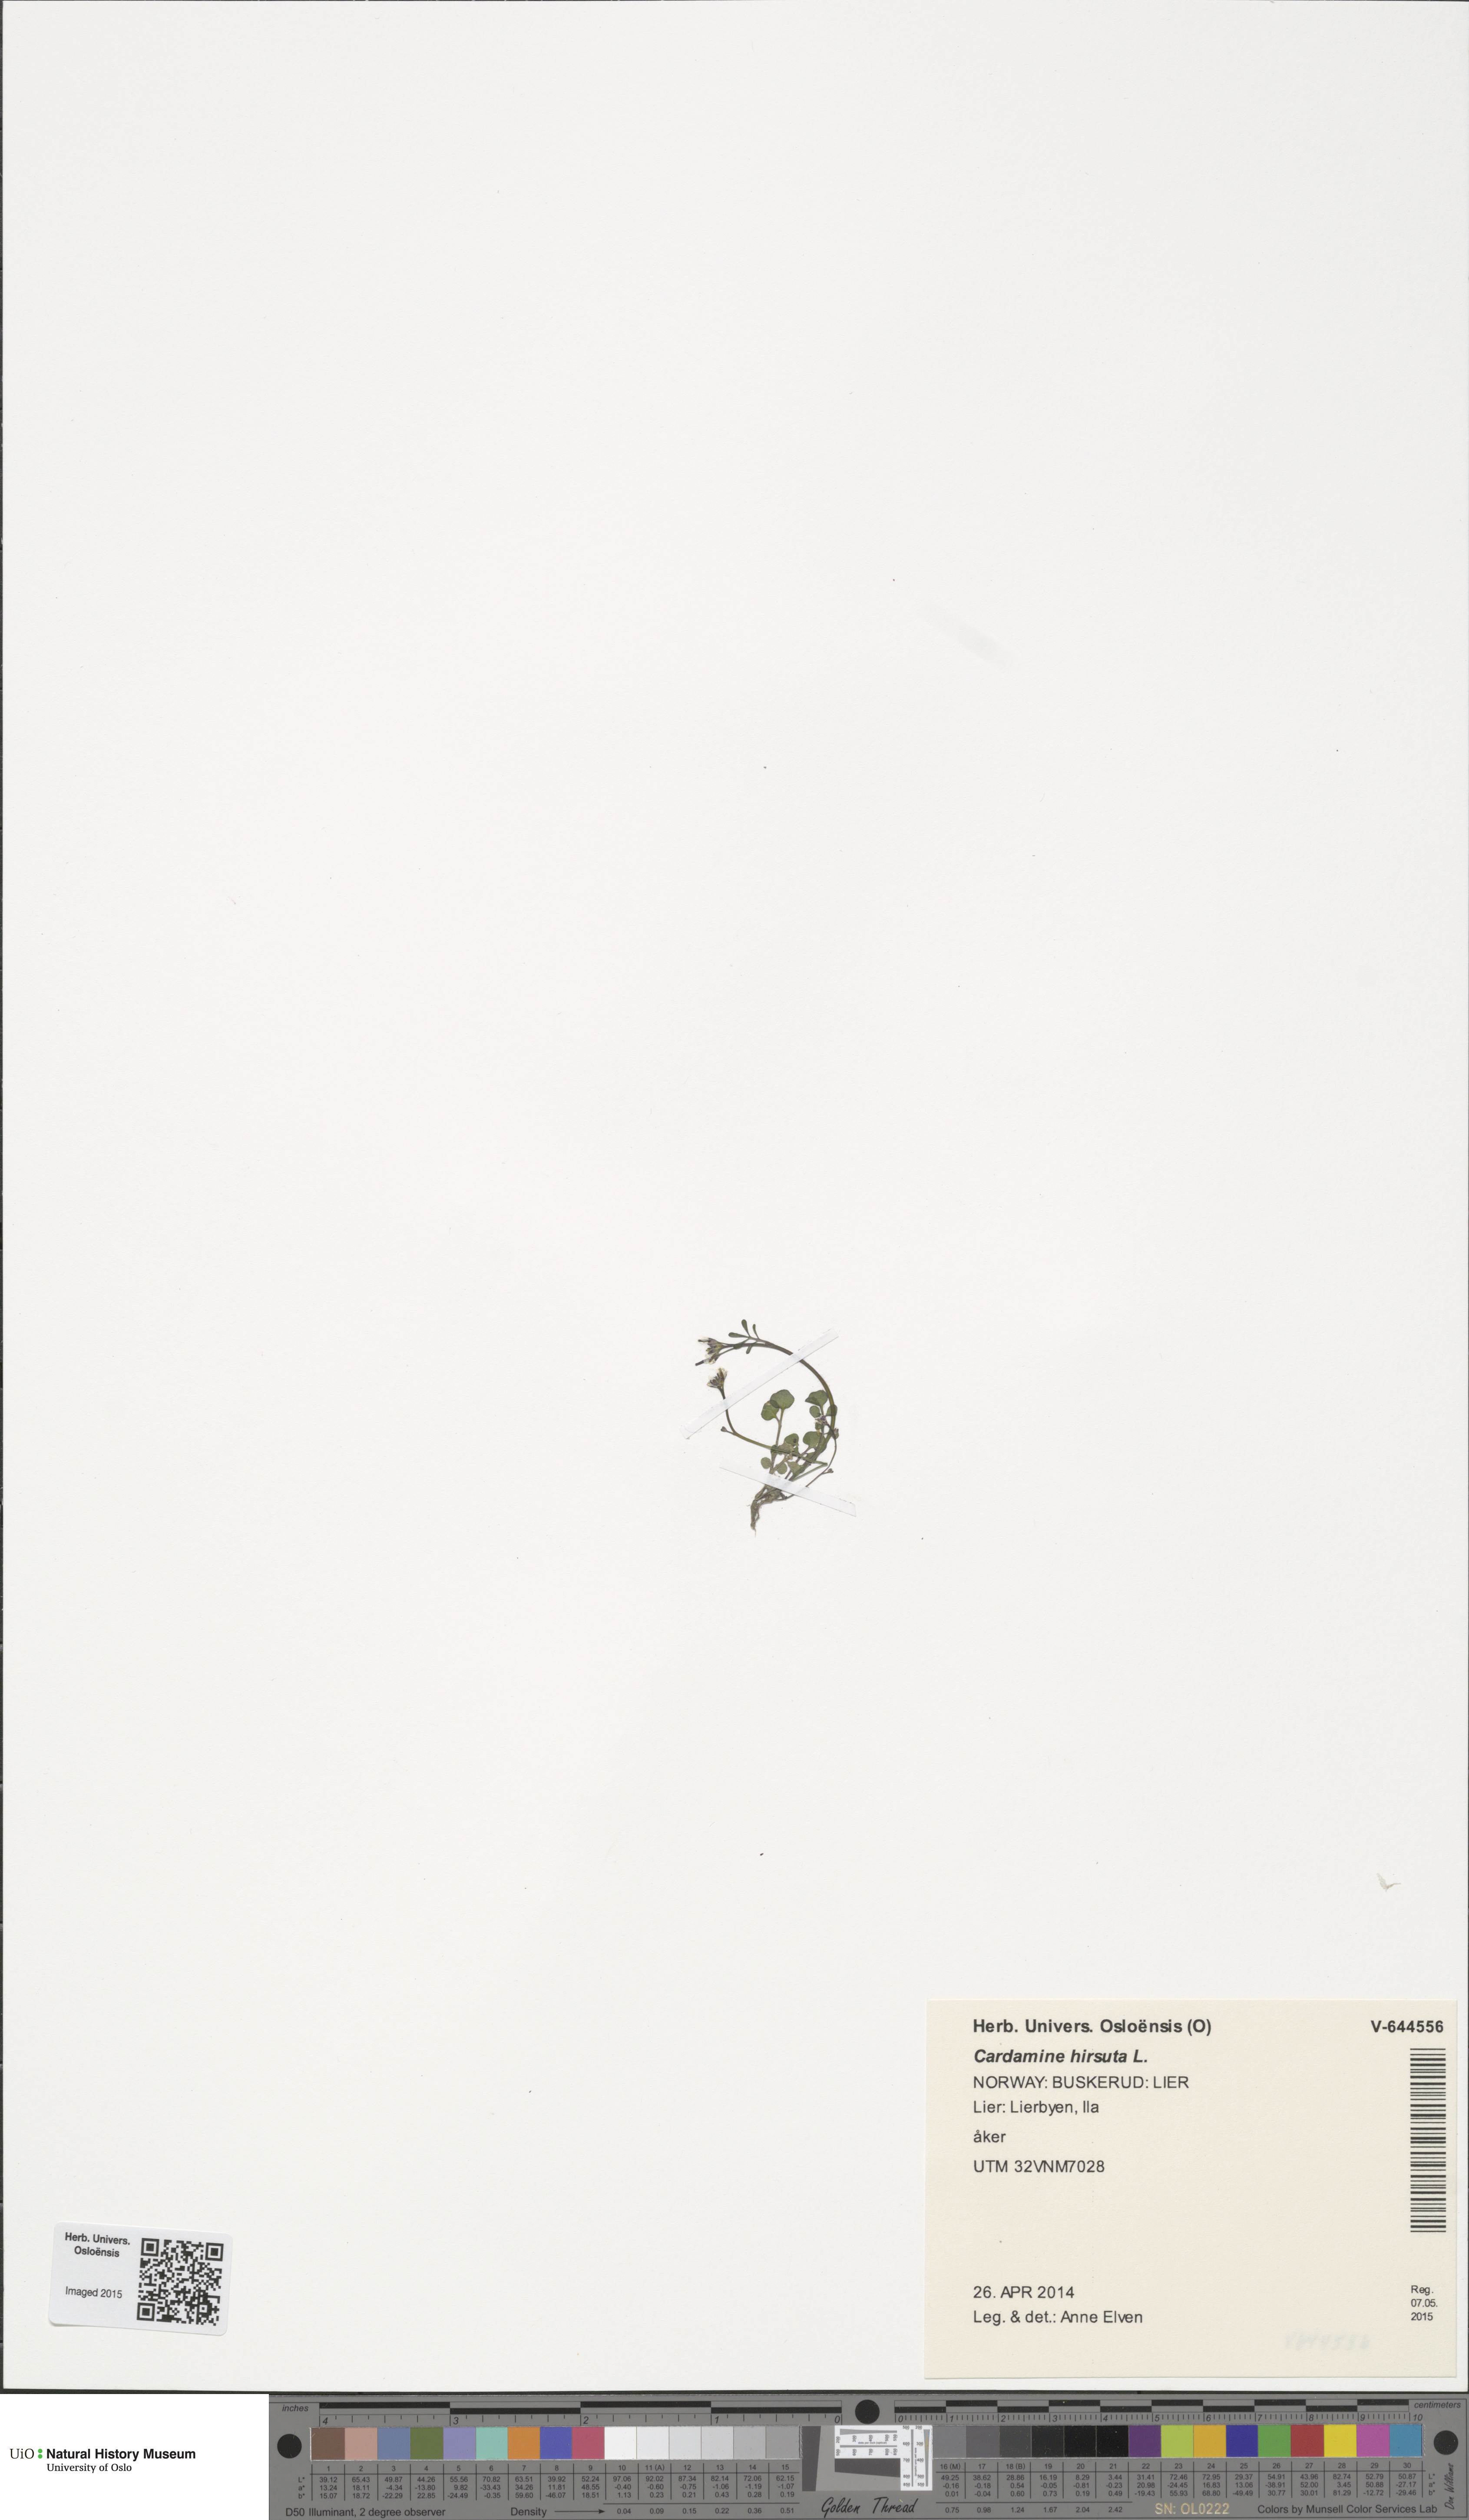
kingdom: Plantae
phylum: Tracheophyta
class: Magnoliopsida
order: Brassicales
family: Brassicaceae
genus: Cardamine
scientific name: Cardamine hirsuta
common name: Hairy bittercress
